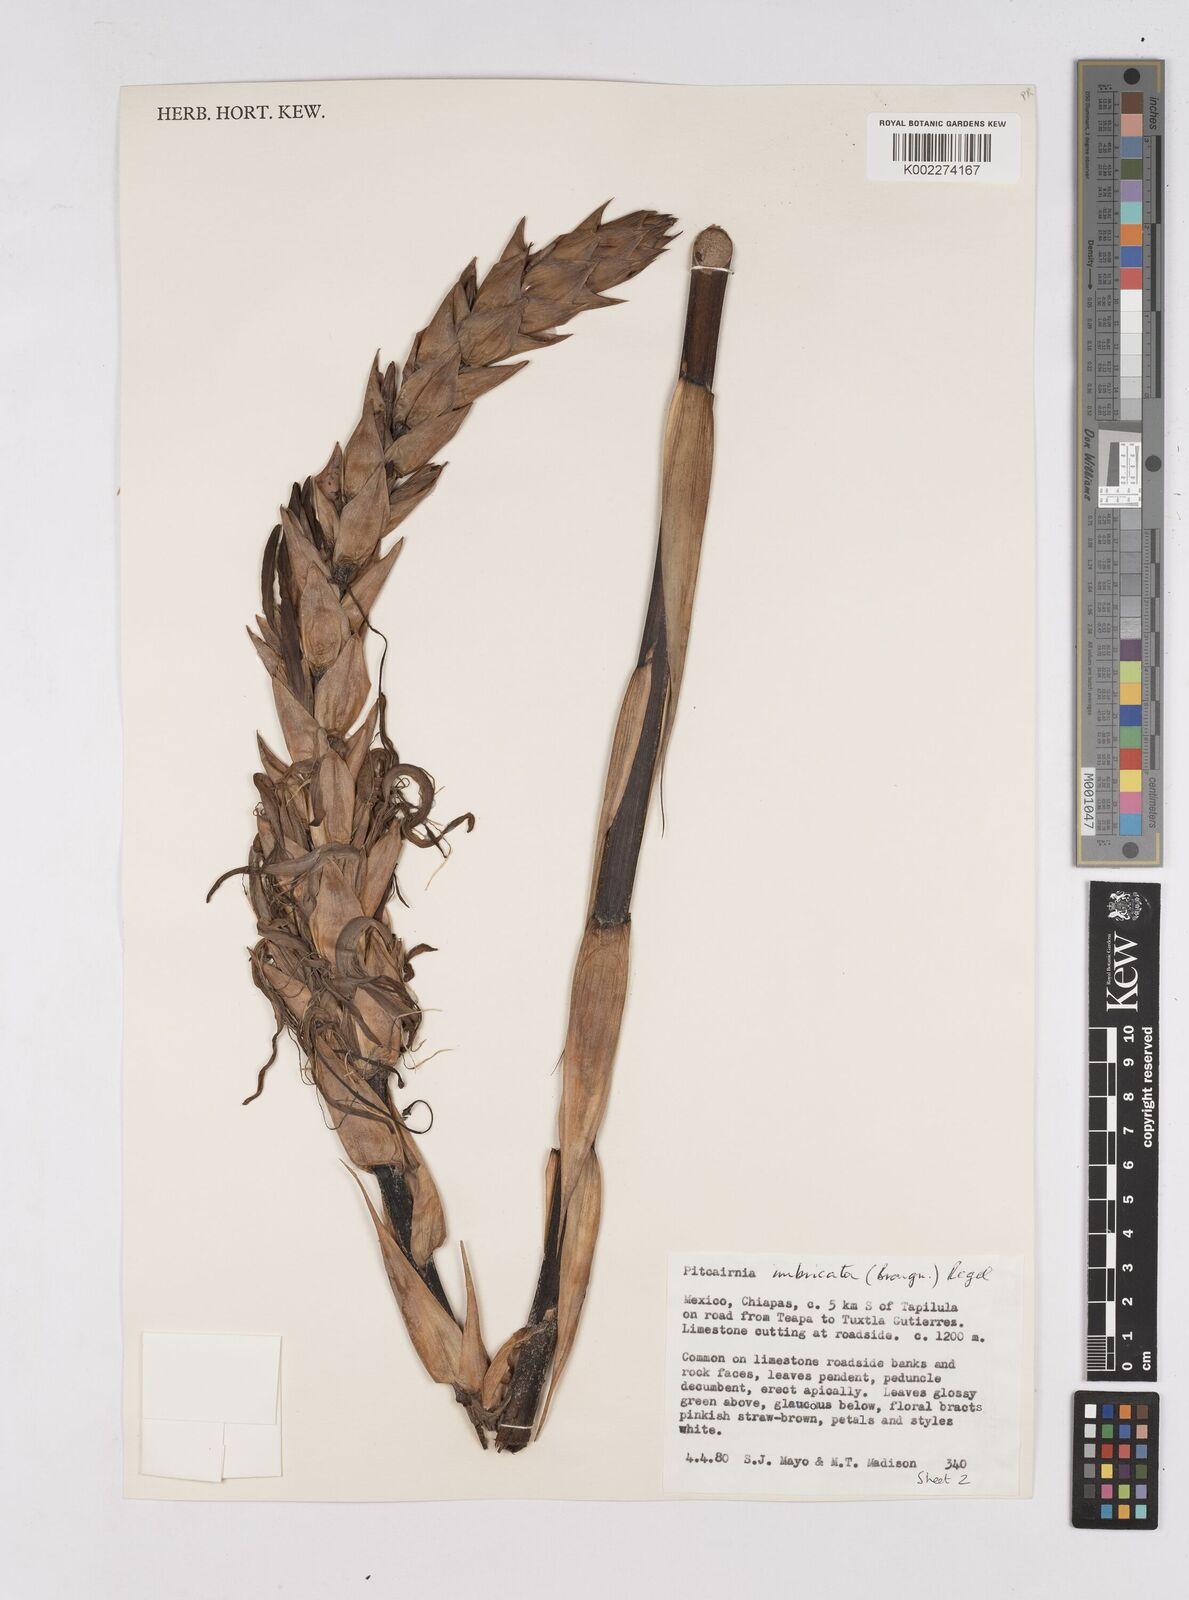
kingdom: Plantae
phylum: Tracheophyta
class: Liliopsida
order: Poales
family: Bromeliaceae
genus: Pitcairnia
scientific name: Pitcairnia imbricata
